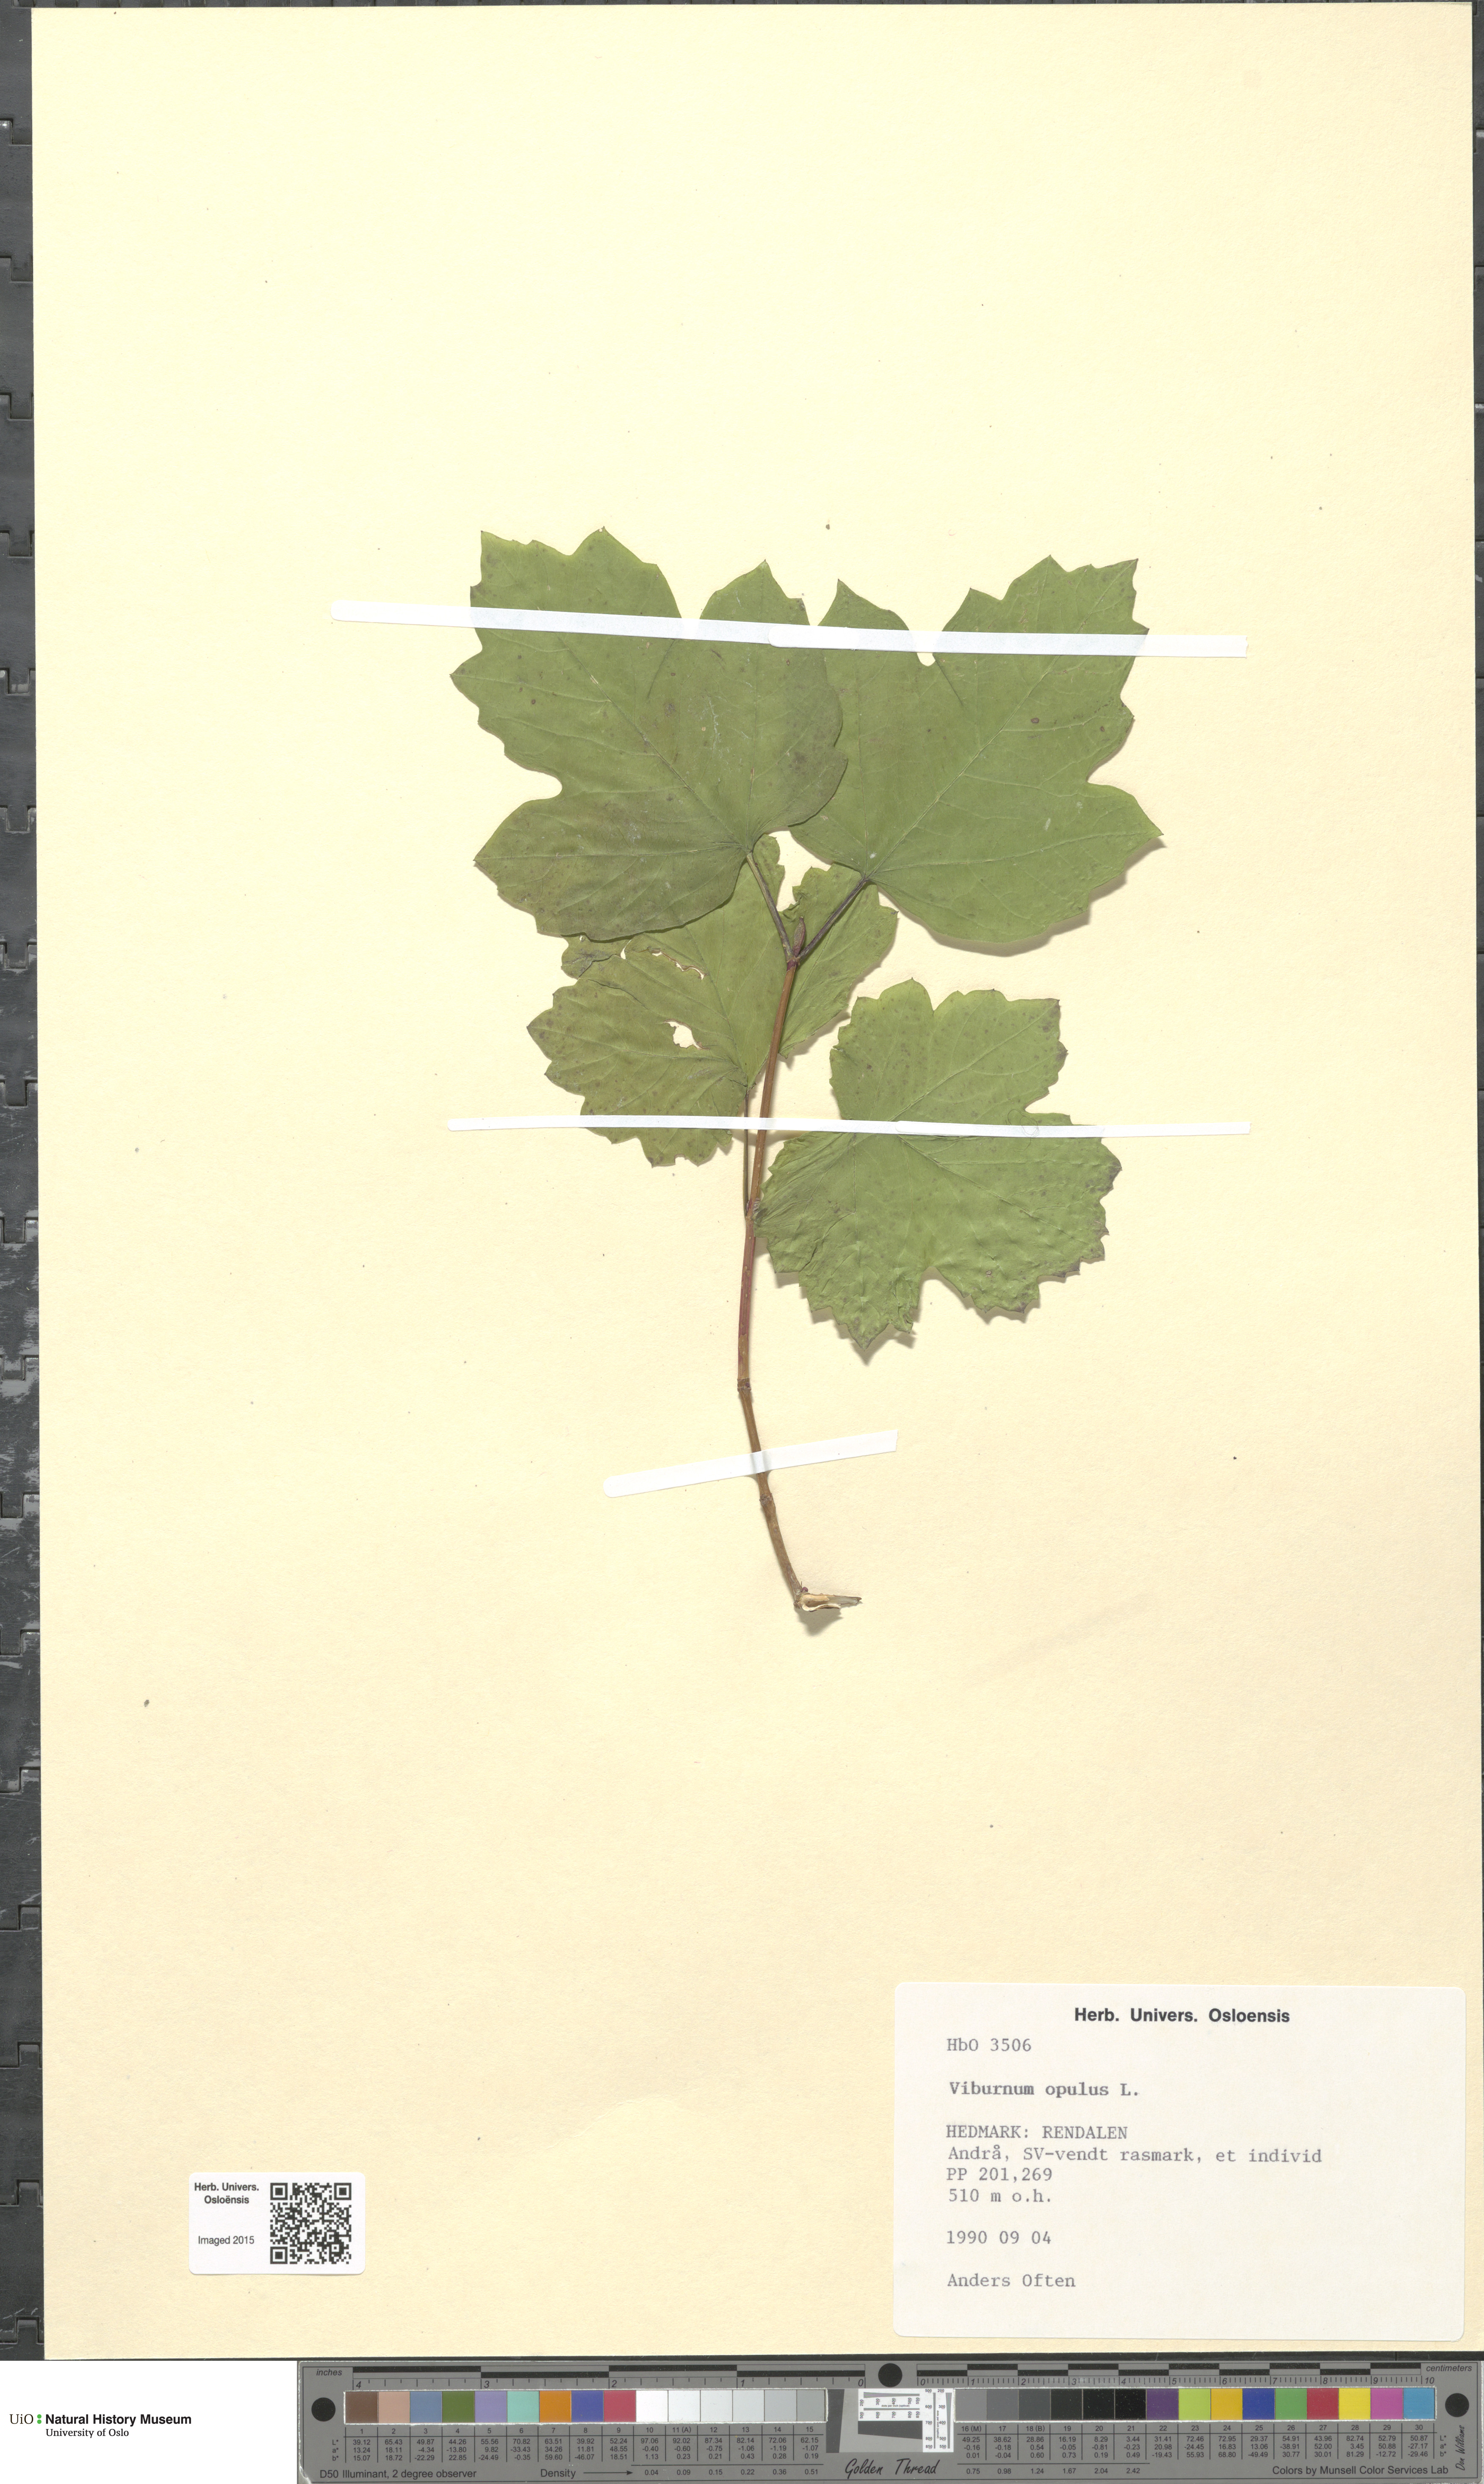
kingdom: Plantae
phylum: Tracheophyta
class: Magnoliopsida
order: Dipsacales
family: Viburnaceae
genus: Viburnum
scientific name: Viburnum opulus
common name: Guelder-rose
